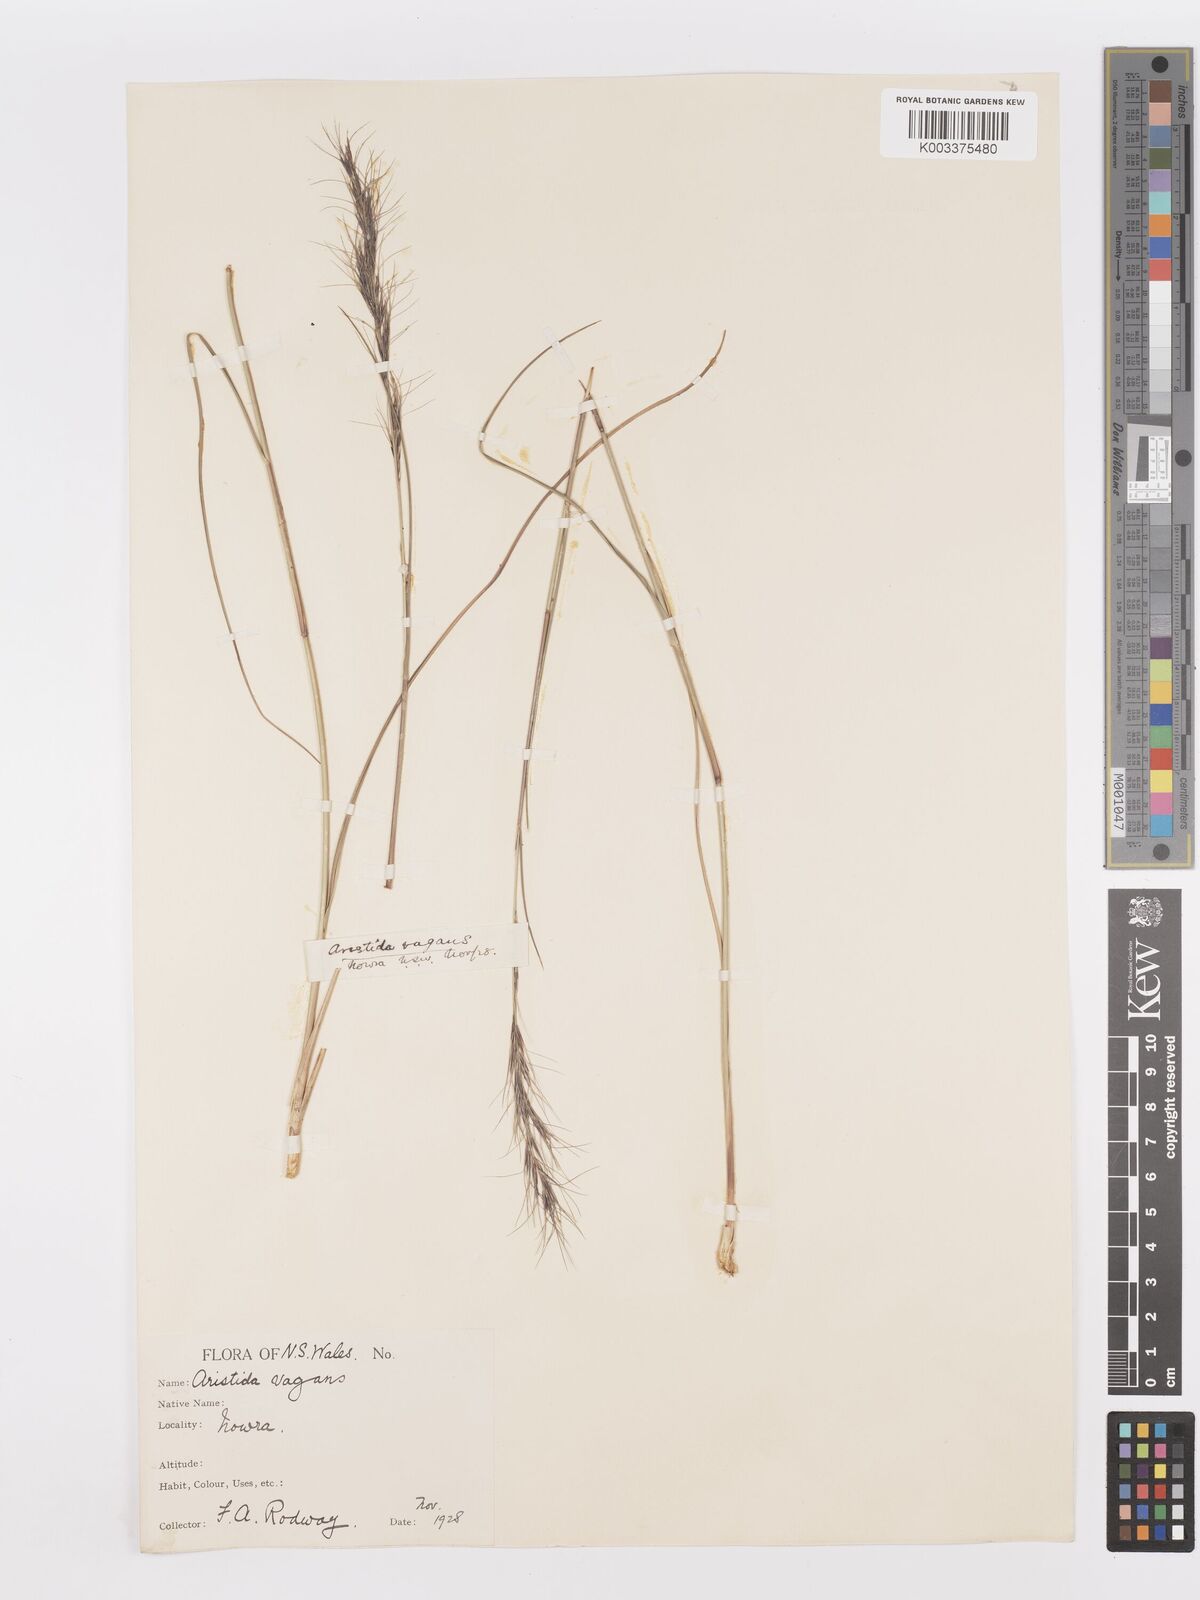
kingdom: Plantae
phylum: Tracheophyta
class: Liliopsida
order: Poales
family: Poaceae
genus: Aristida
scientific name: Aristida ramosa
